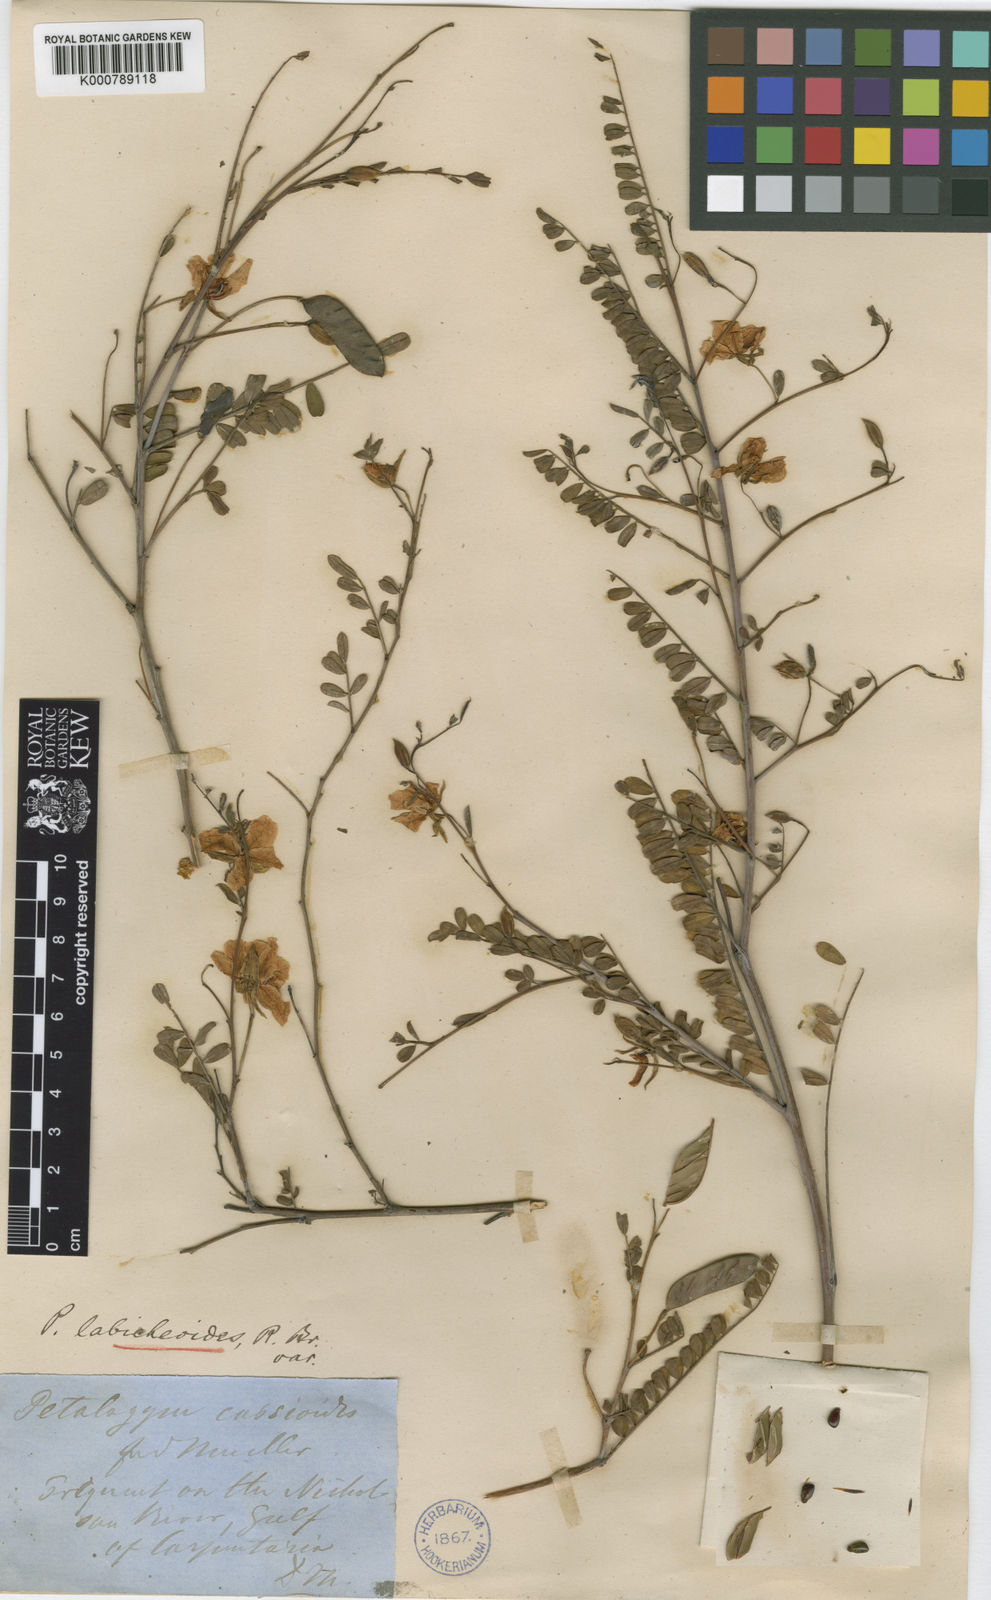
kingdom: Plantae
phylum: Tracheophyta
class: Magnoliopsida
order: Fabales
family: Fabaceae
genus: Petalostylis
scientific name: Petalostylis cassioides
